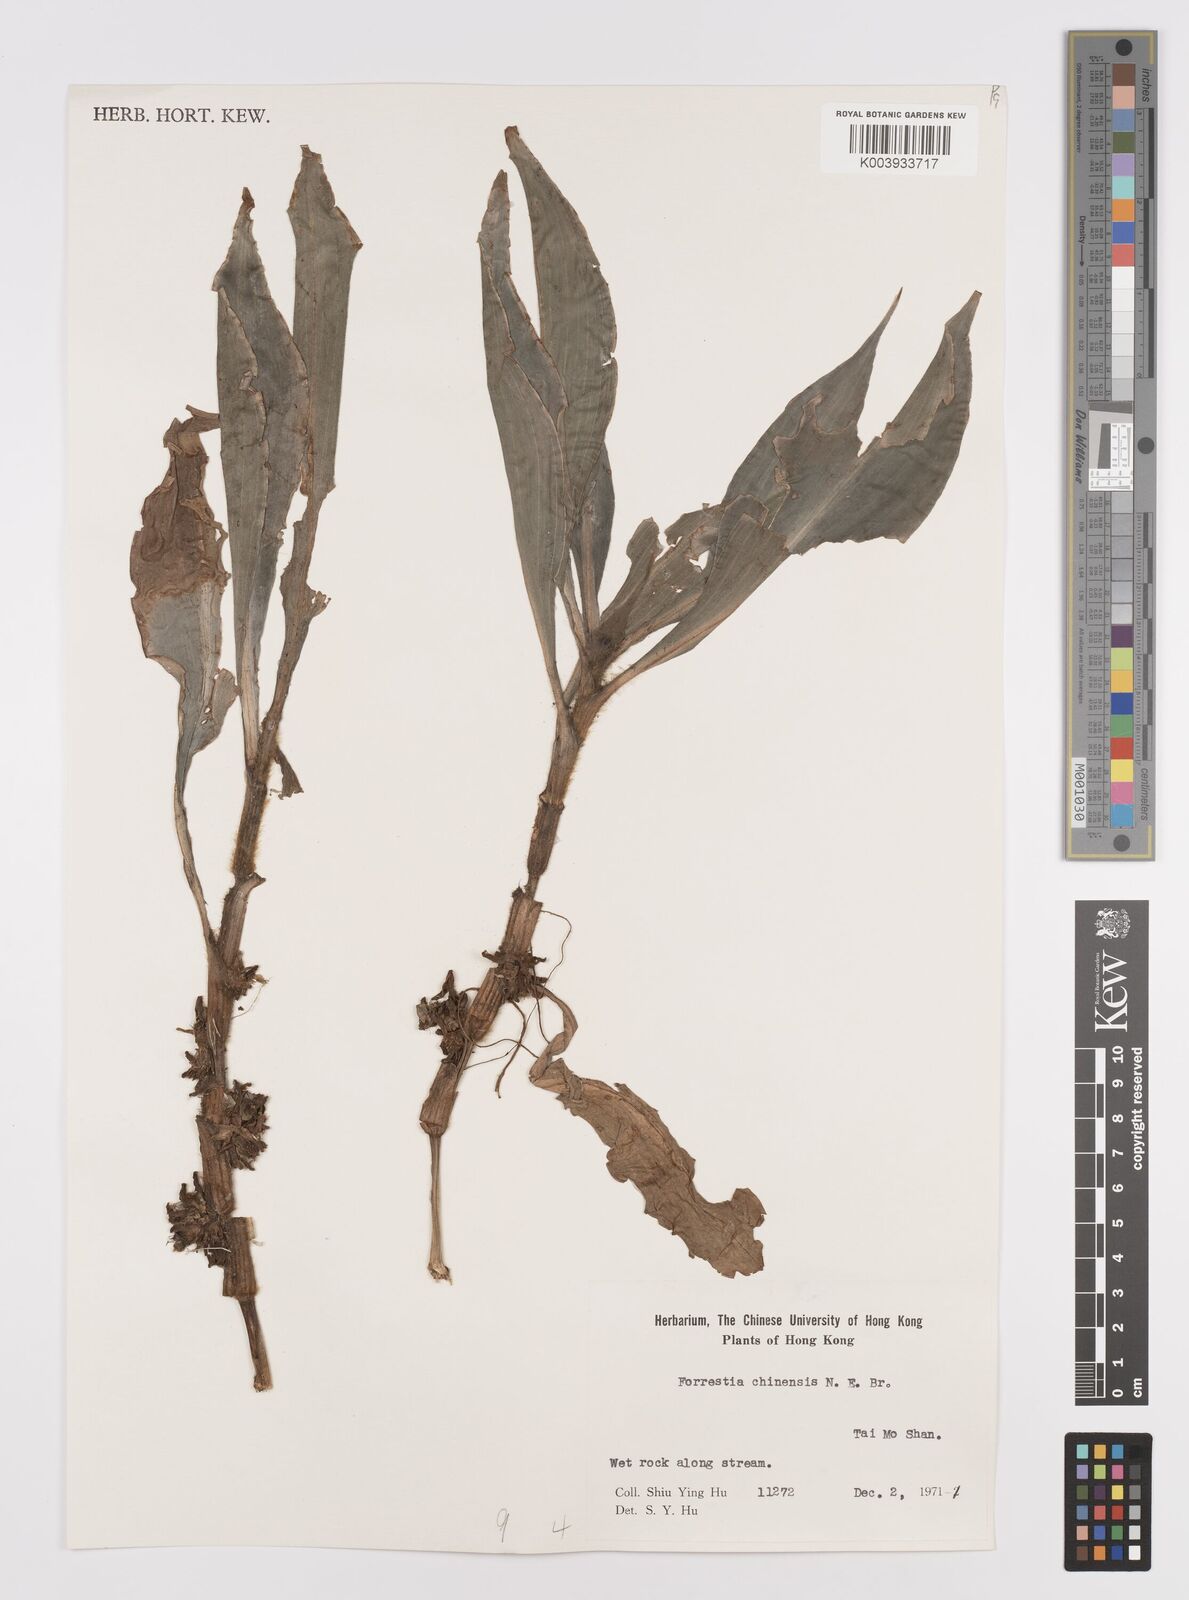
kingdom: Plantae
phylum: Tracheophyta
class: Liliopsida
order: Commelinales
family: Commelinaceae
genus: Amischotolype
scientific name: Amischotolype hispida
